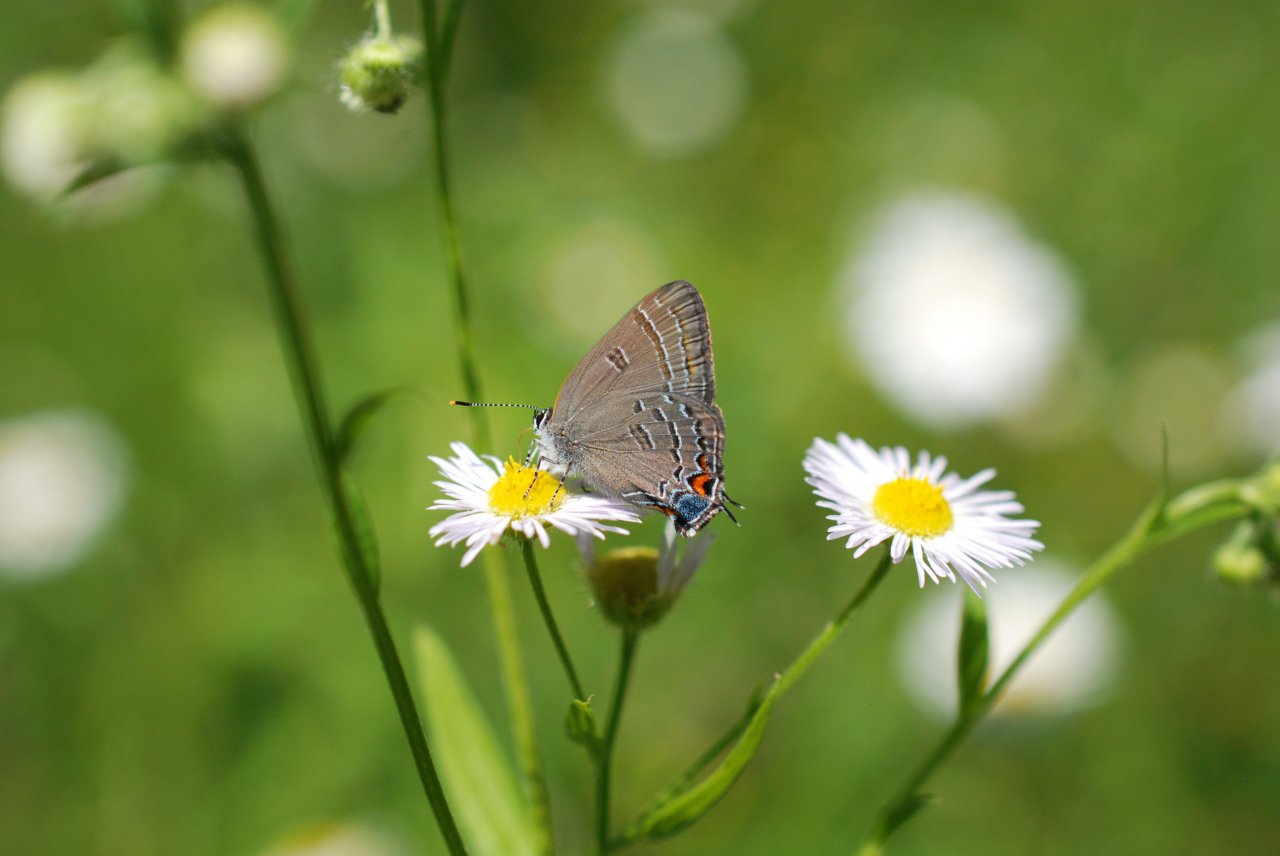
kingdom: Animalia
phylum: Arthropoda
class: Insecta
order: Lepidoptera
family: Lycaenidae
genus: Satyrium
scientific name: Satyrium calanus
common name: Banded Hairstreak
